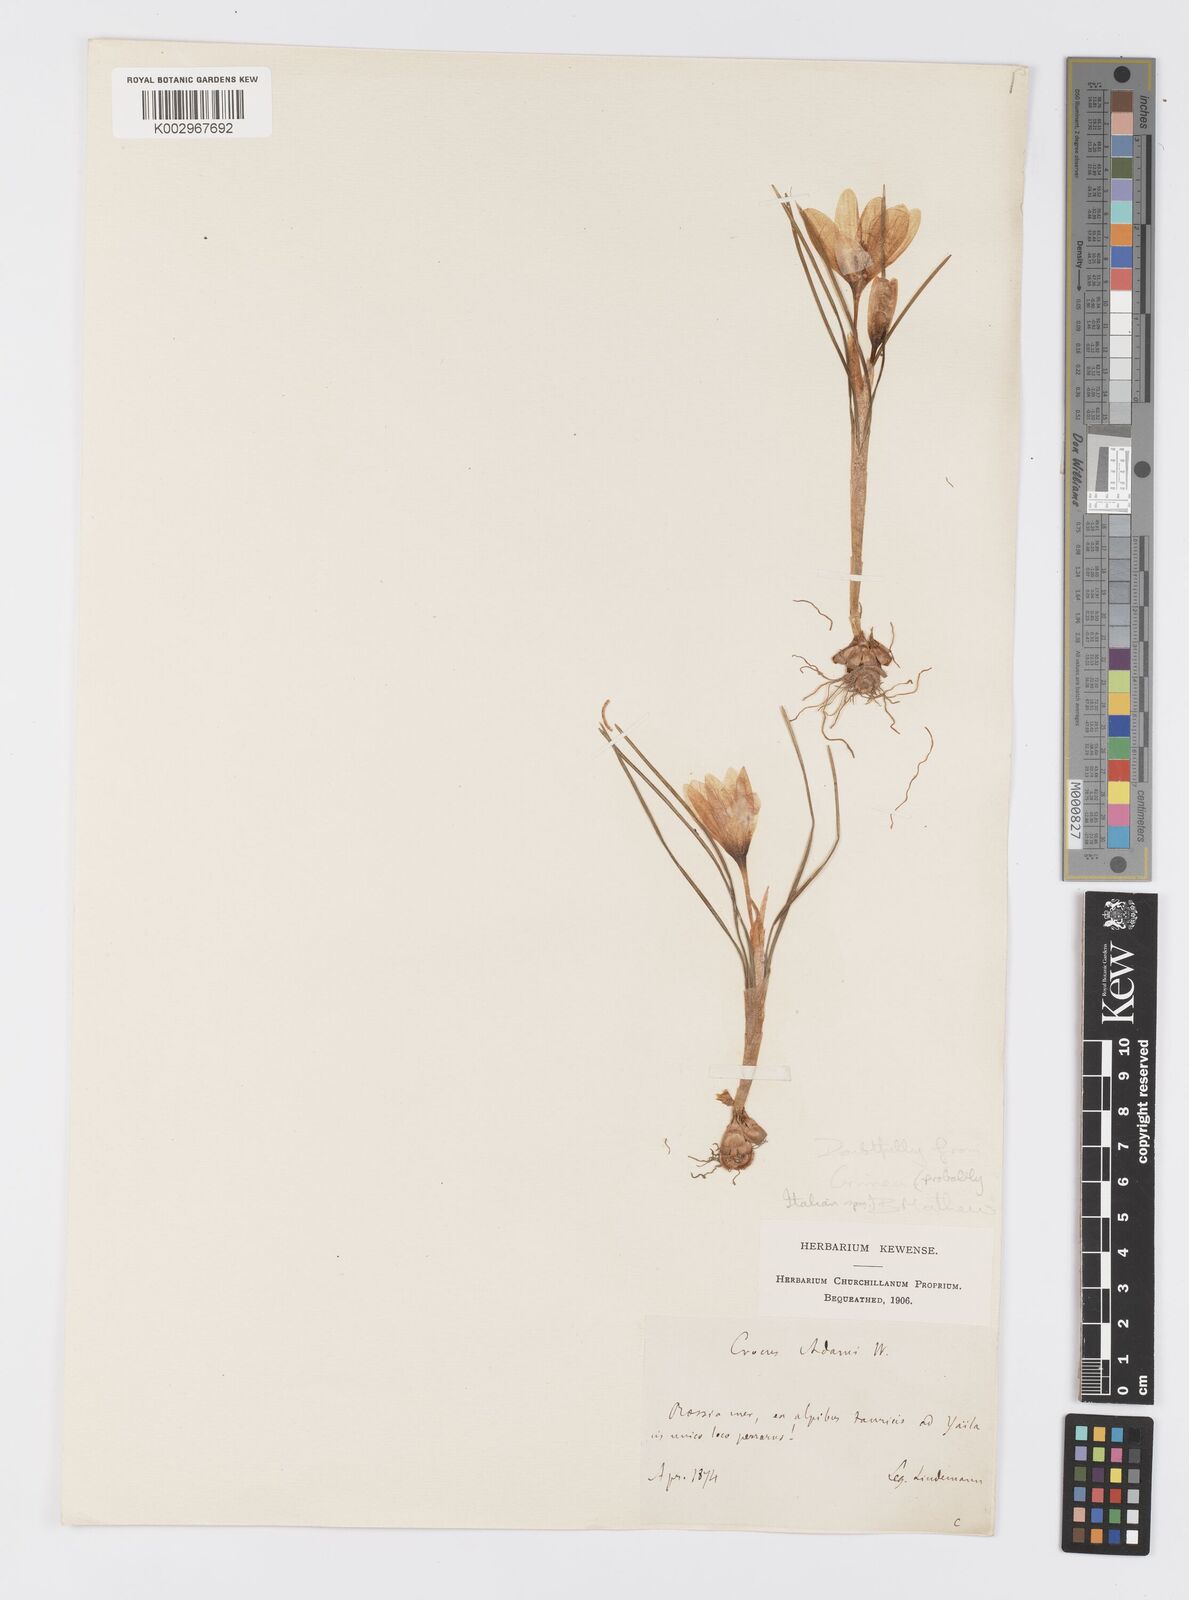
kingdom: Plantae
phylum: Tracheophyta
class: Liliopsida
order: Asparagales
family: Iridaceae
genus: Crocus
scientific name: Crocus biflorus
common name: Silvery crocus
